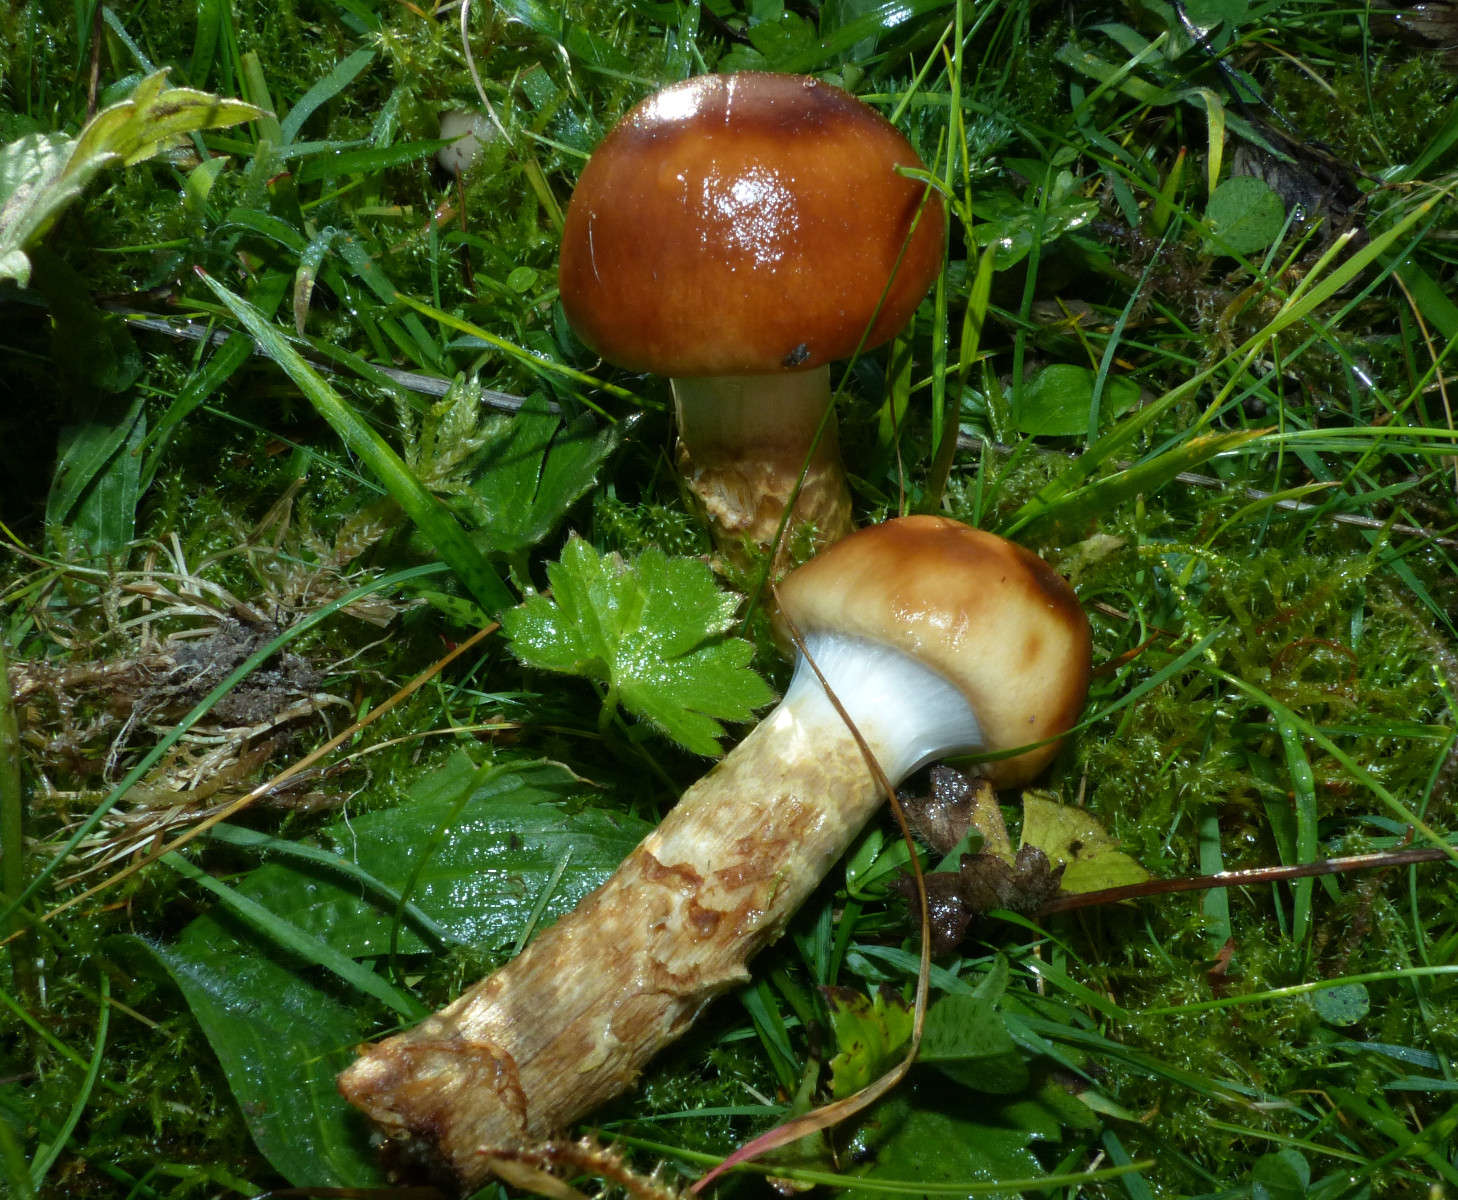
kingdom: Fungi
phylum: Basidiomycota
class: Agaricomycetes
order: Agaricales
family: Cortinariaceae
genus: Cortinarius
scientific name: Cortinarius trivialis
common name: brunslimet slørhat
